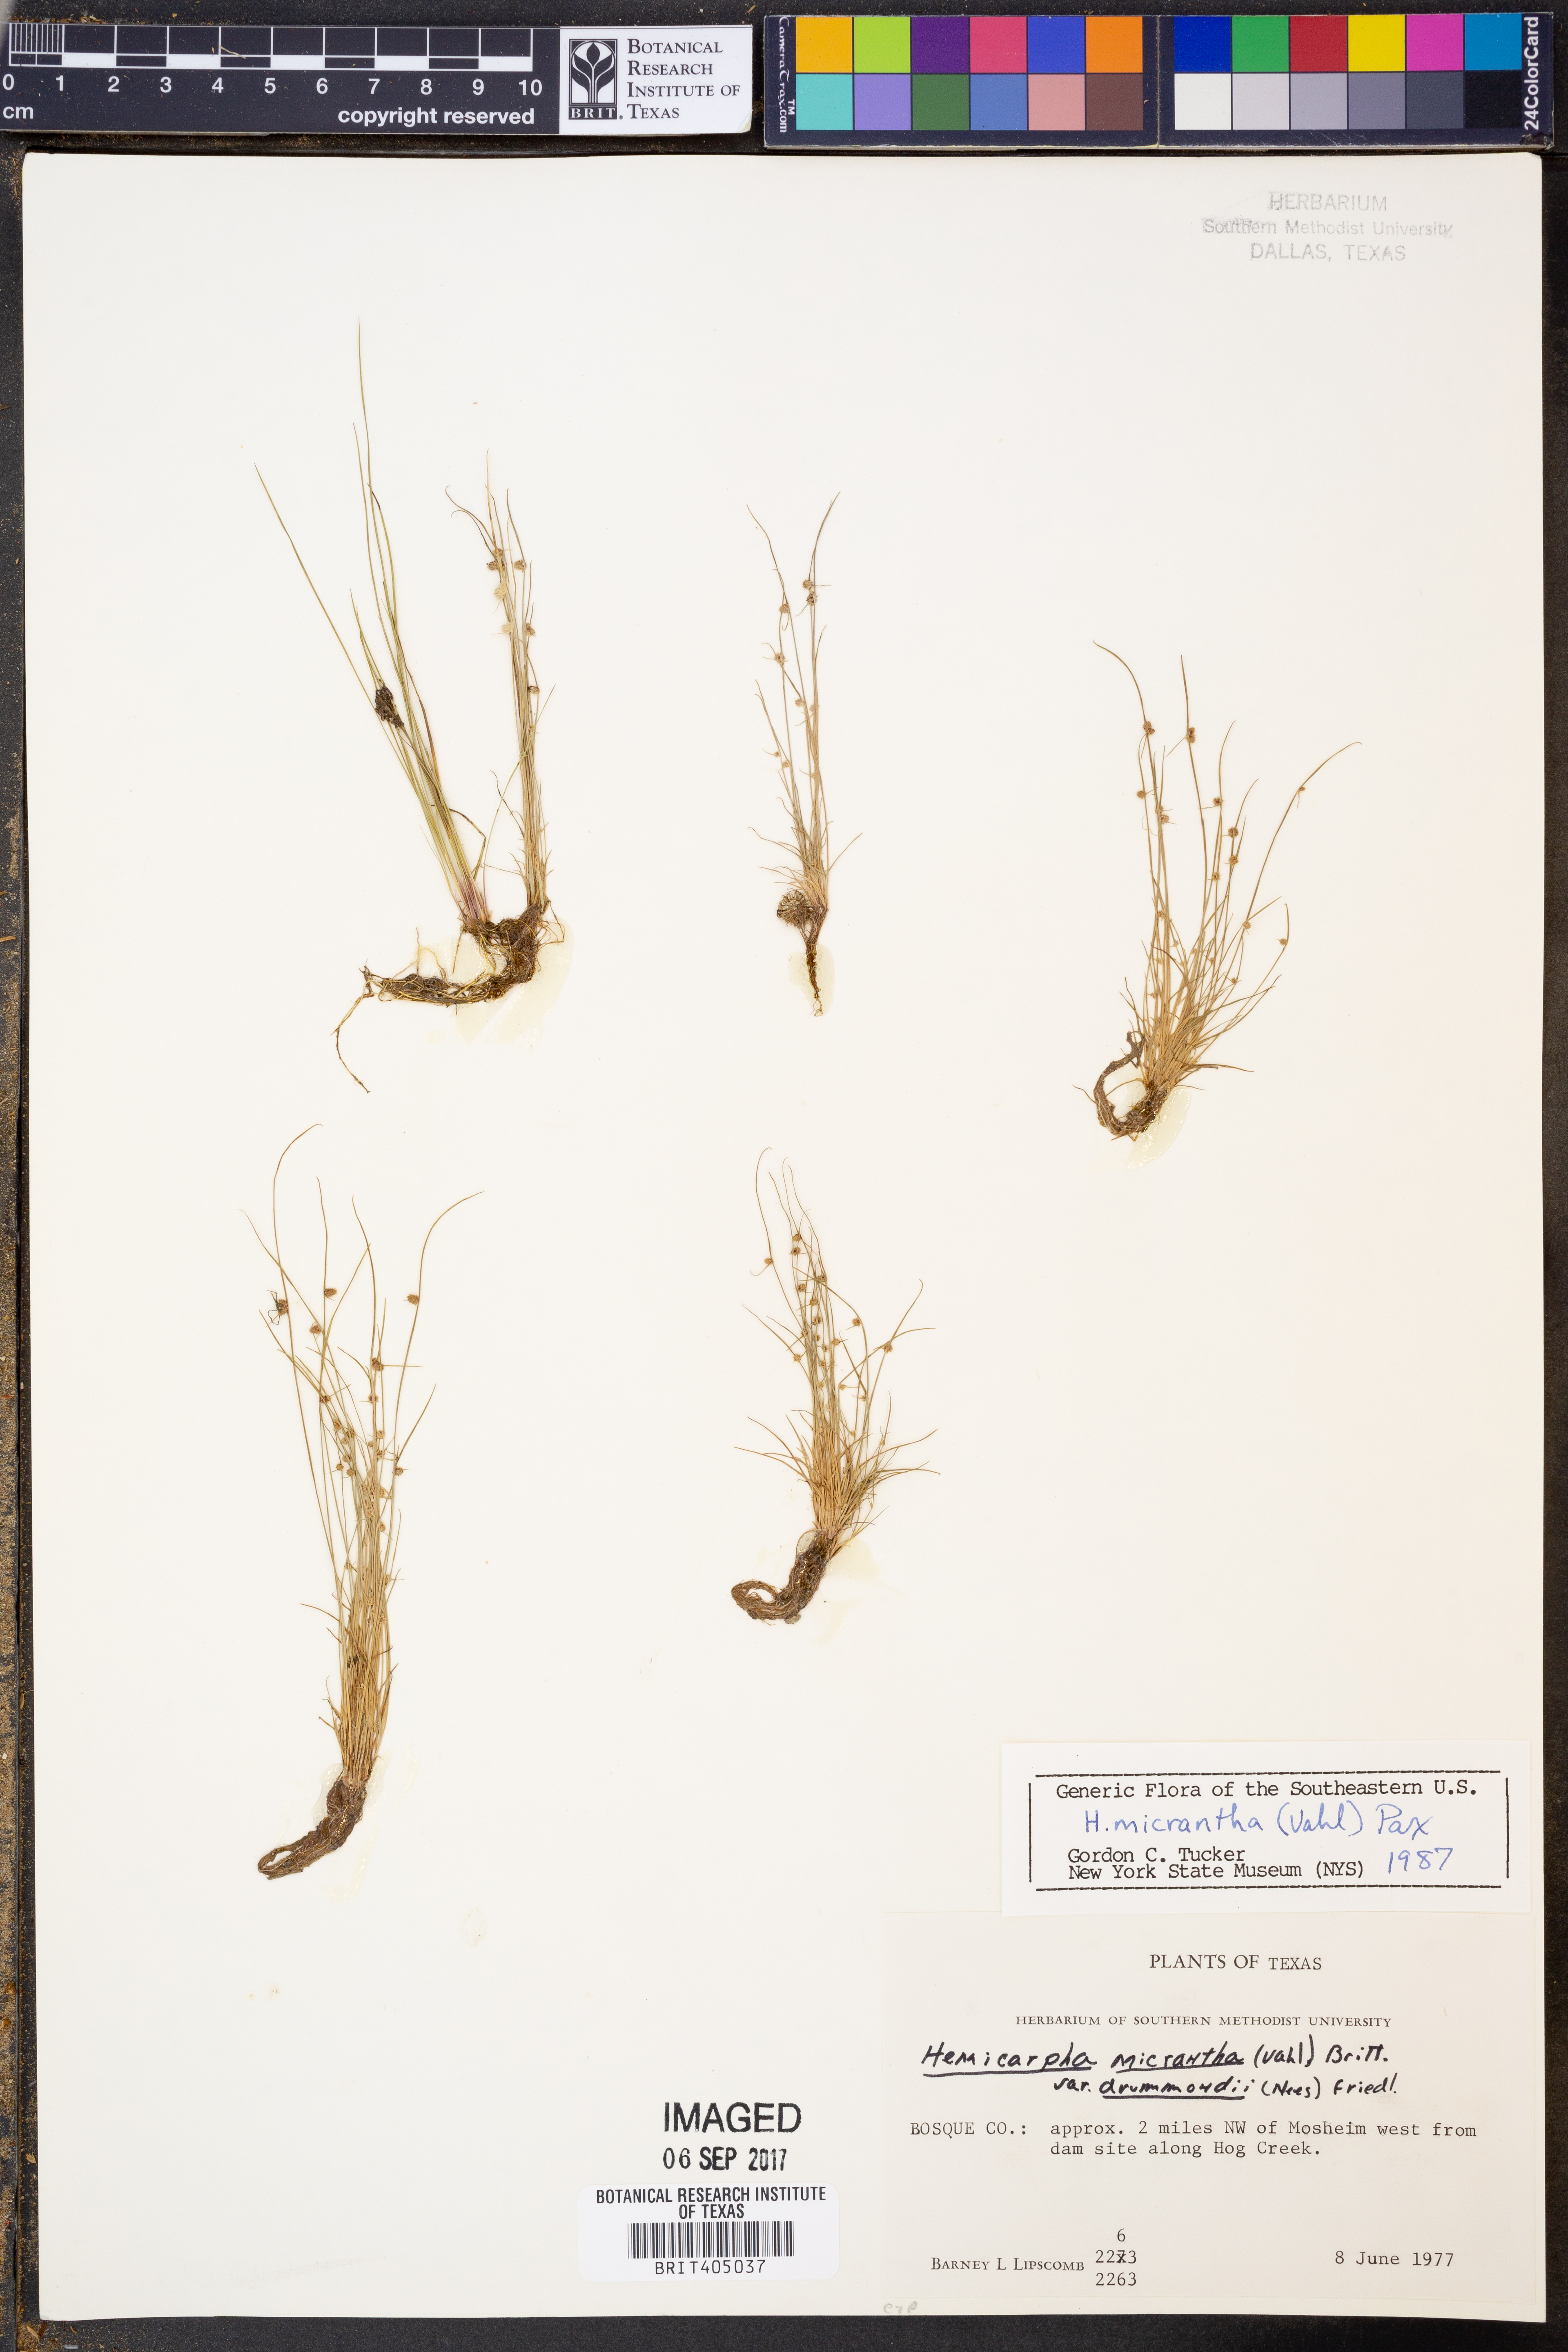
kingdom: Plantae
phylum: Tracheophyta
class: Liliopsida
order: Poales
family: Cyperaceae
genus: Cyperus
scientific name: Cyperus subsquarrosus
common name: Dwarf bulrush
